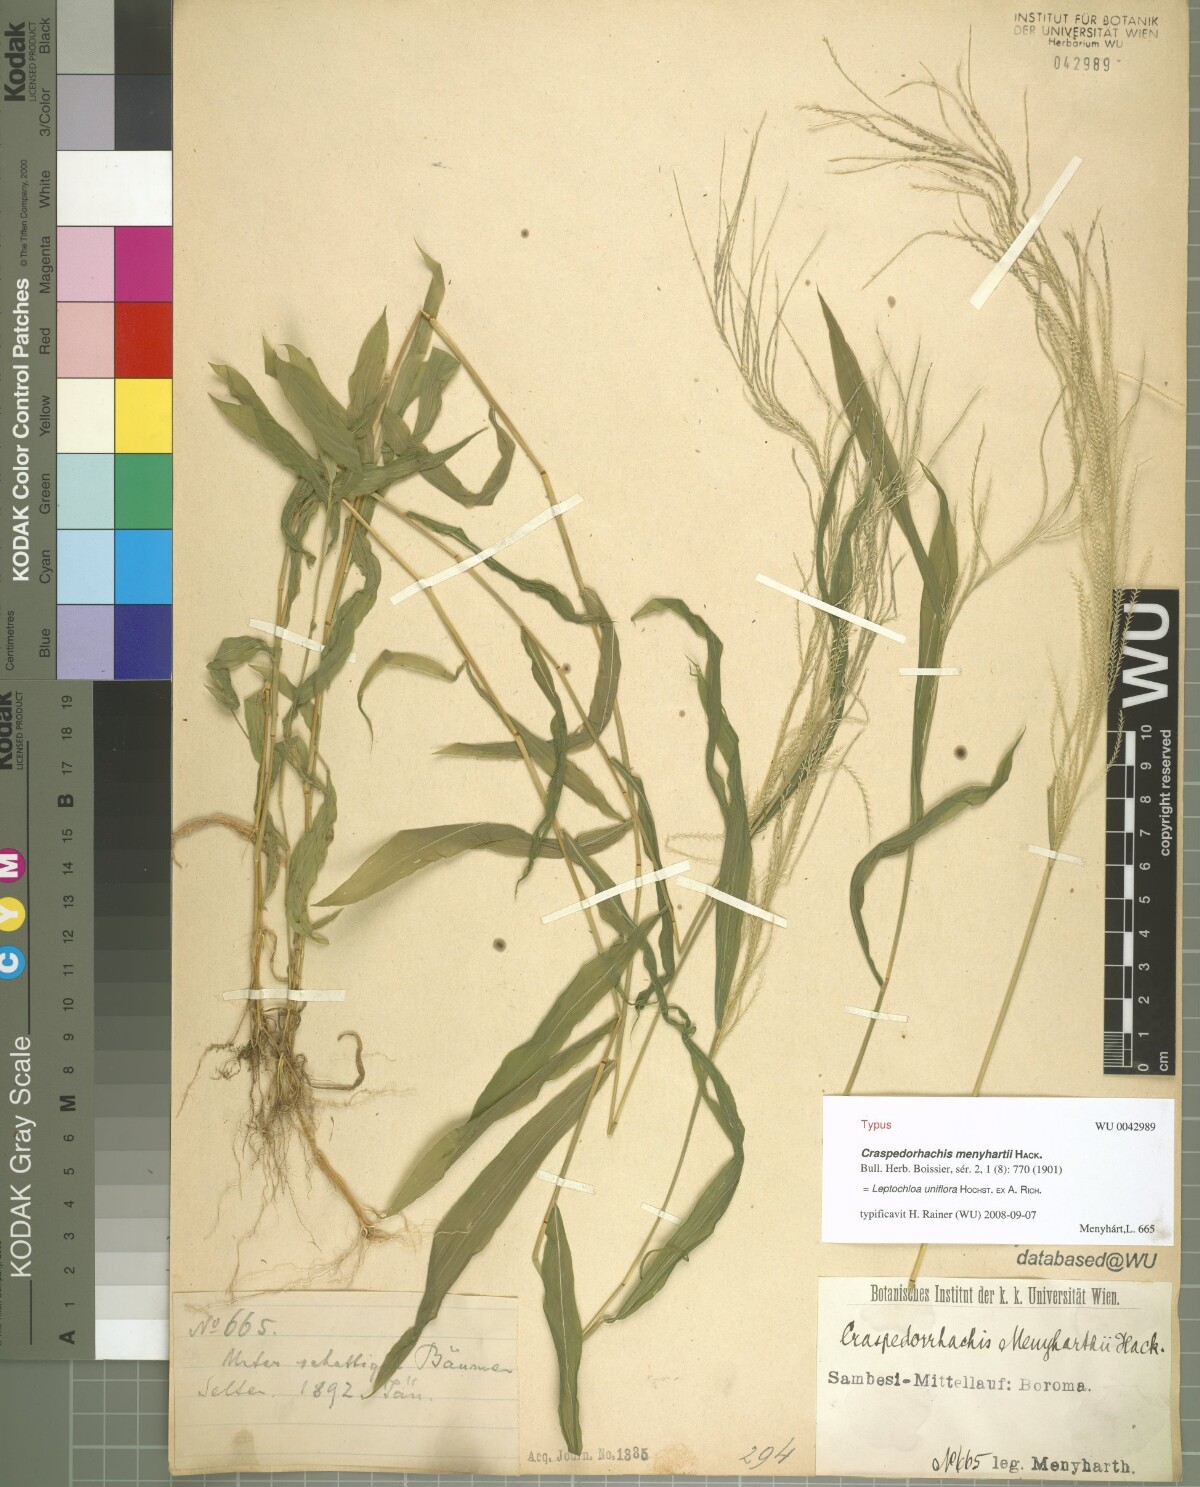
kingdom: Plantae
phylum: Tracheophyta
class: Liliopsida
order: Poales
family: Poaceae
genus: Trigonochloa
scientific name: Trigonochloa uniflora
